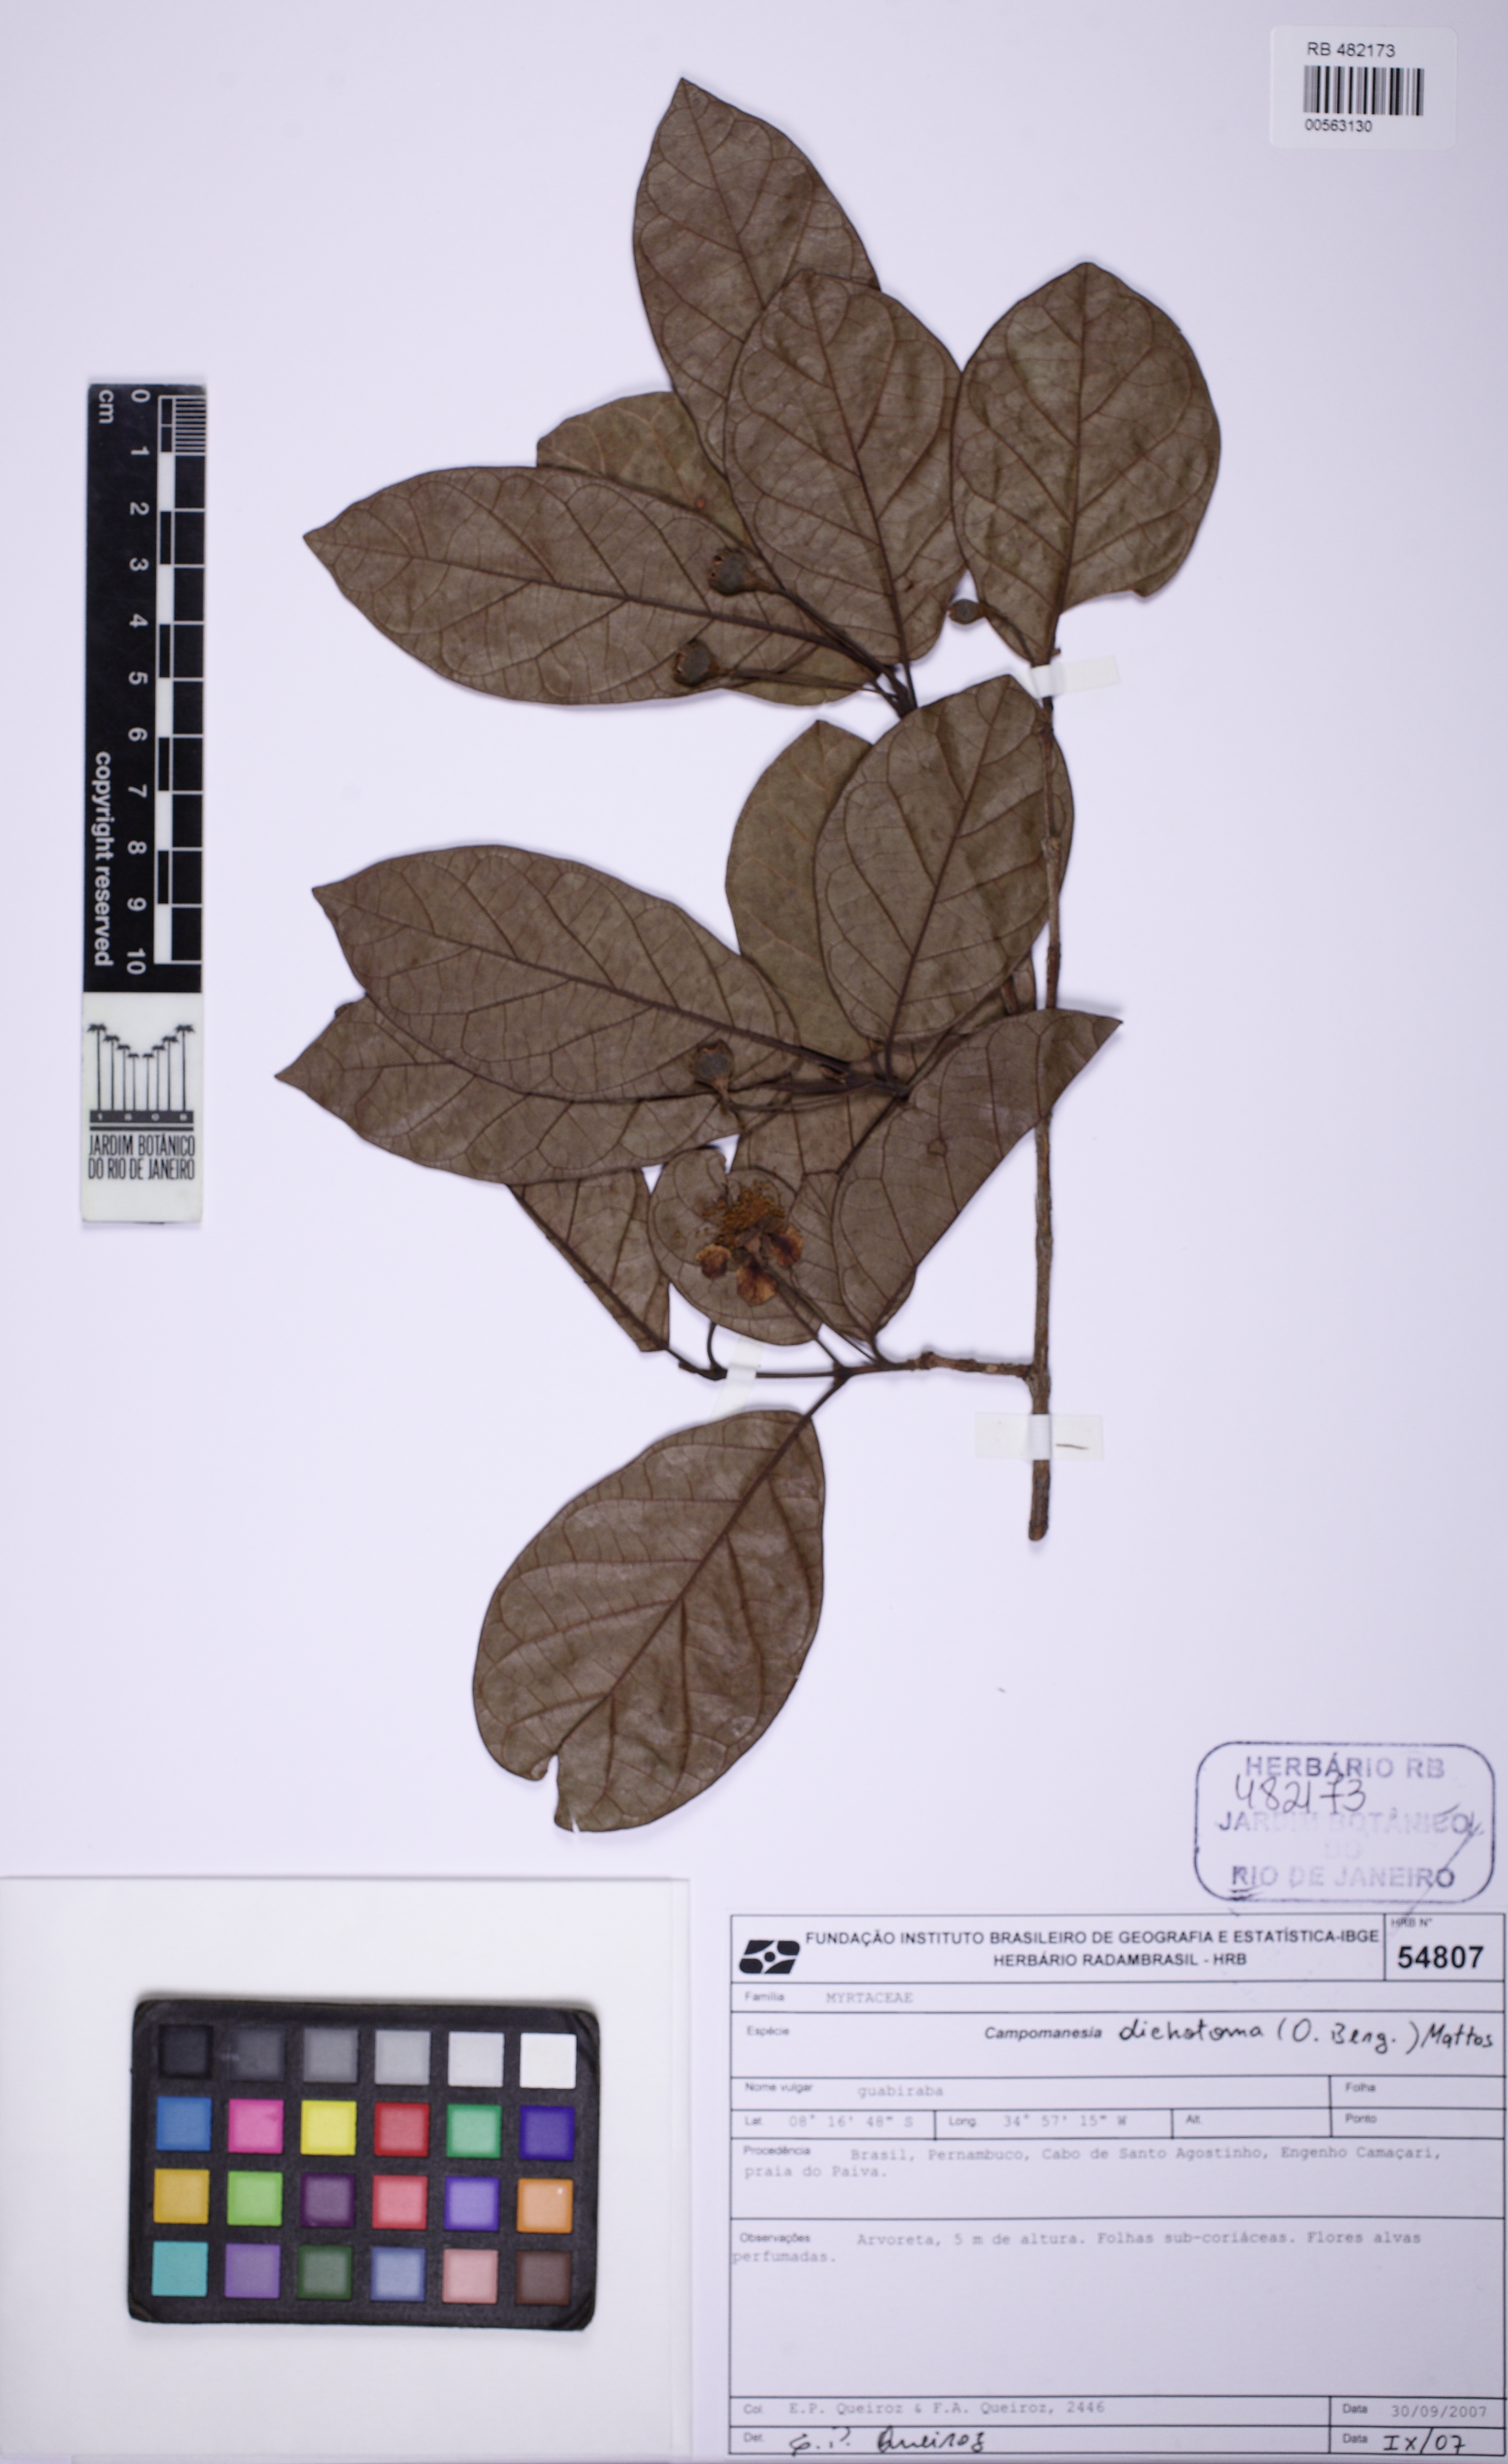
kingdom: Plantae
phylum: Tracheophyta
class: Magnoliopsida
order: Myrtales
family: Myrtaceae
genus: Campomanesia
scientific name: Campomanesia dichotoma
